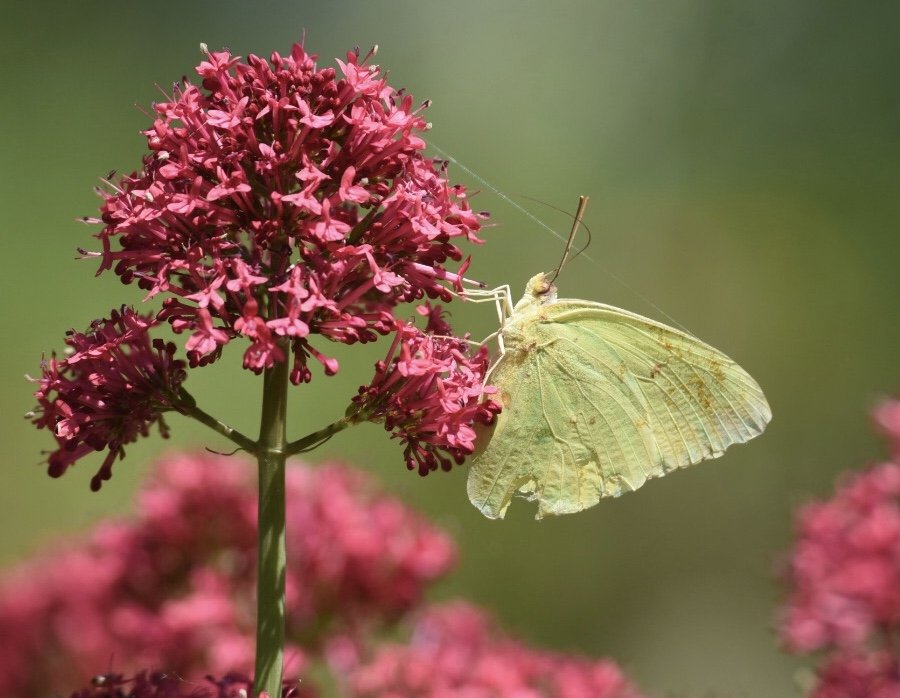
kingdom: Animalia
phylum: Arthropoda
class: Insecta
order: Lepidoptera
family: Pieridae
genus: Phoebis
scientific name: Phoebis sennae
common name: Cloudless Sulphur
